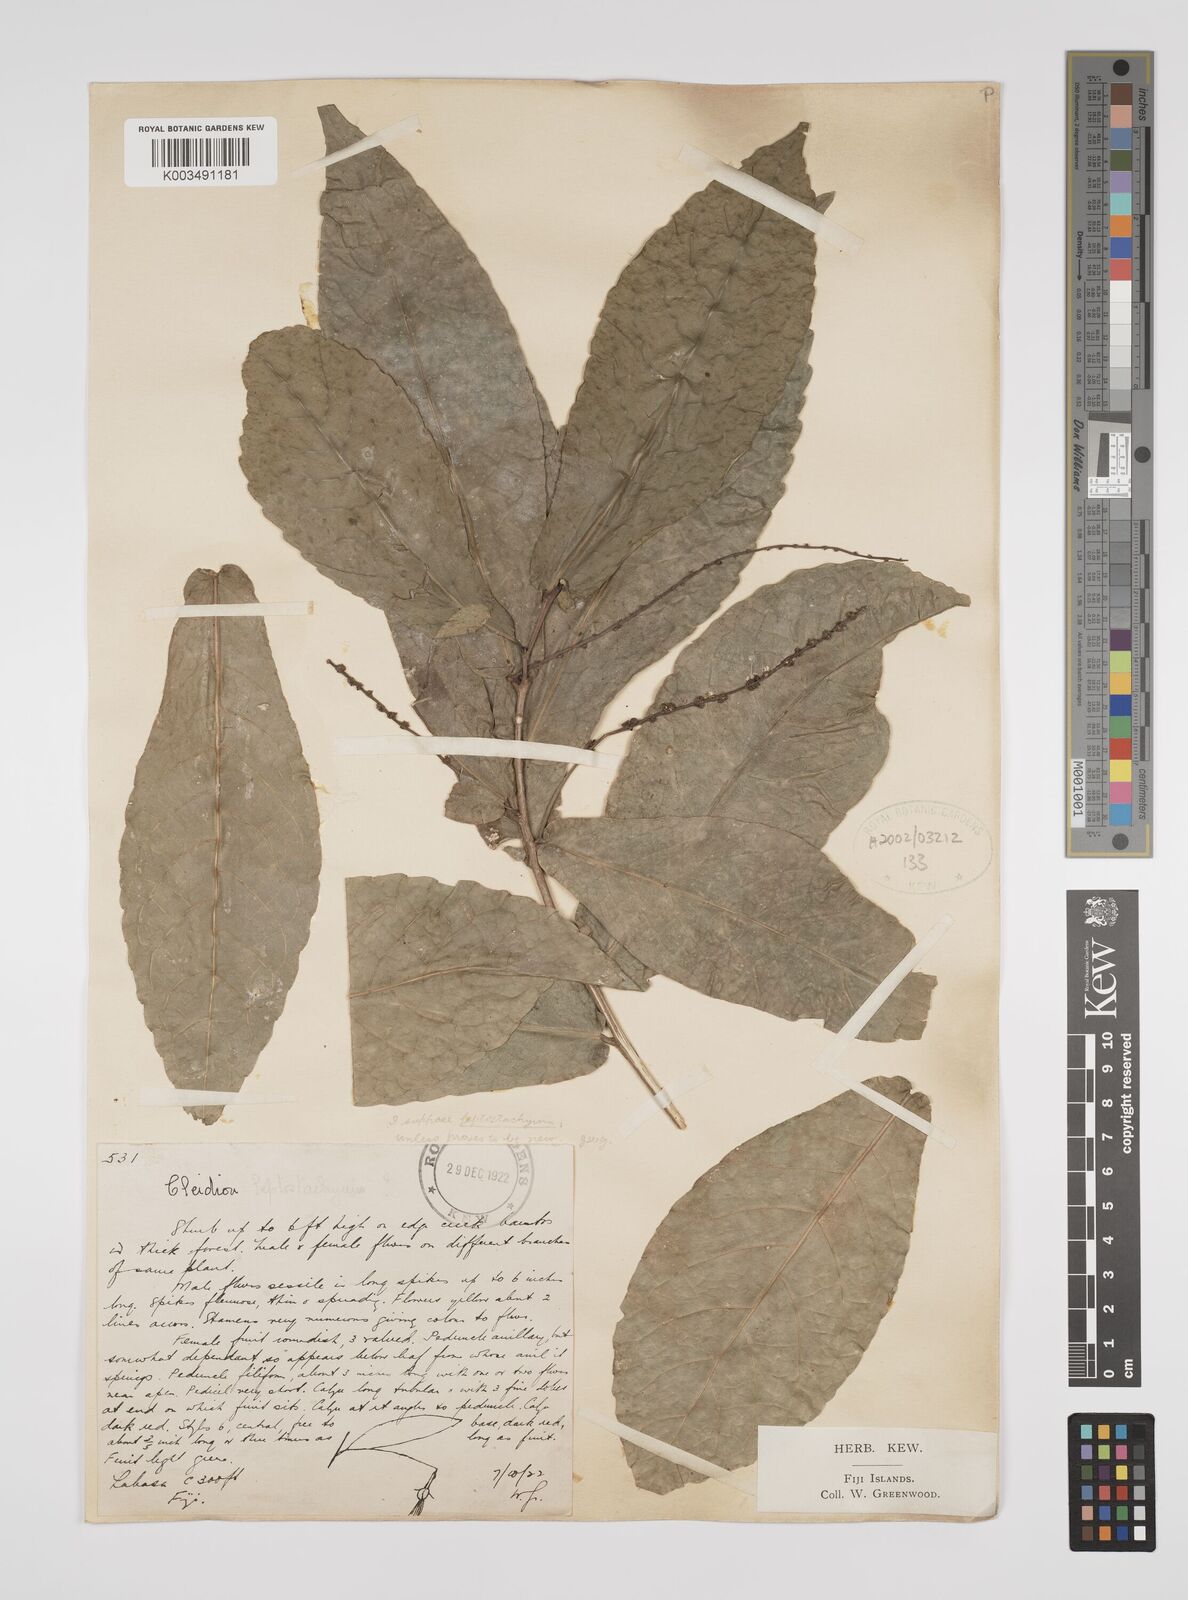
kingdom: Plantae
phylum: Tracheophyta
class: Magnoliopsida
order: Malpighiales
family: Euphorbiaceae
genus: Cleidion
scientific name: Cleidion leptostachyum
